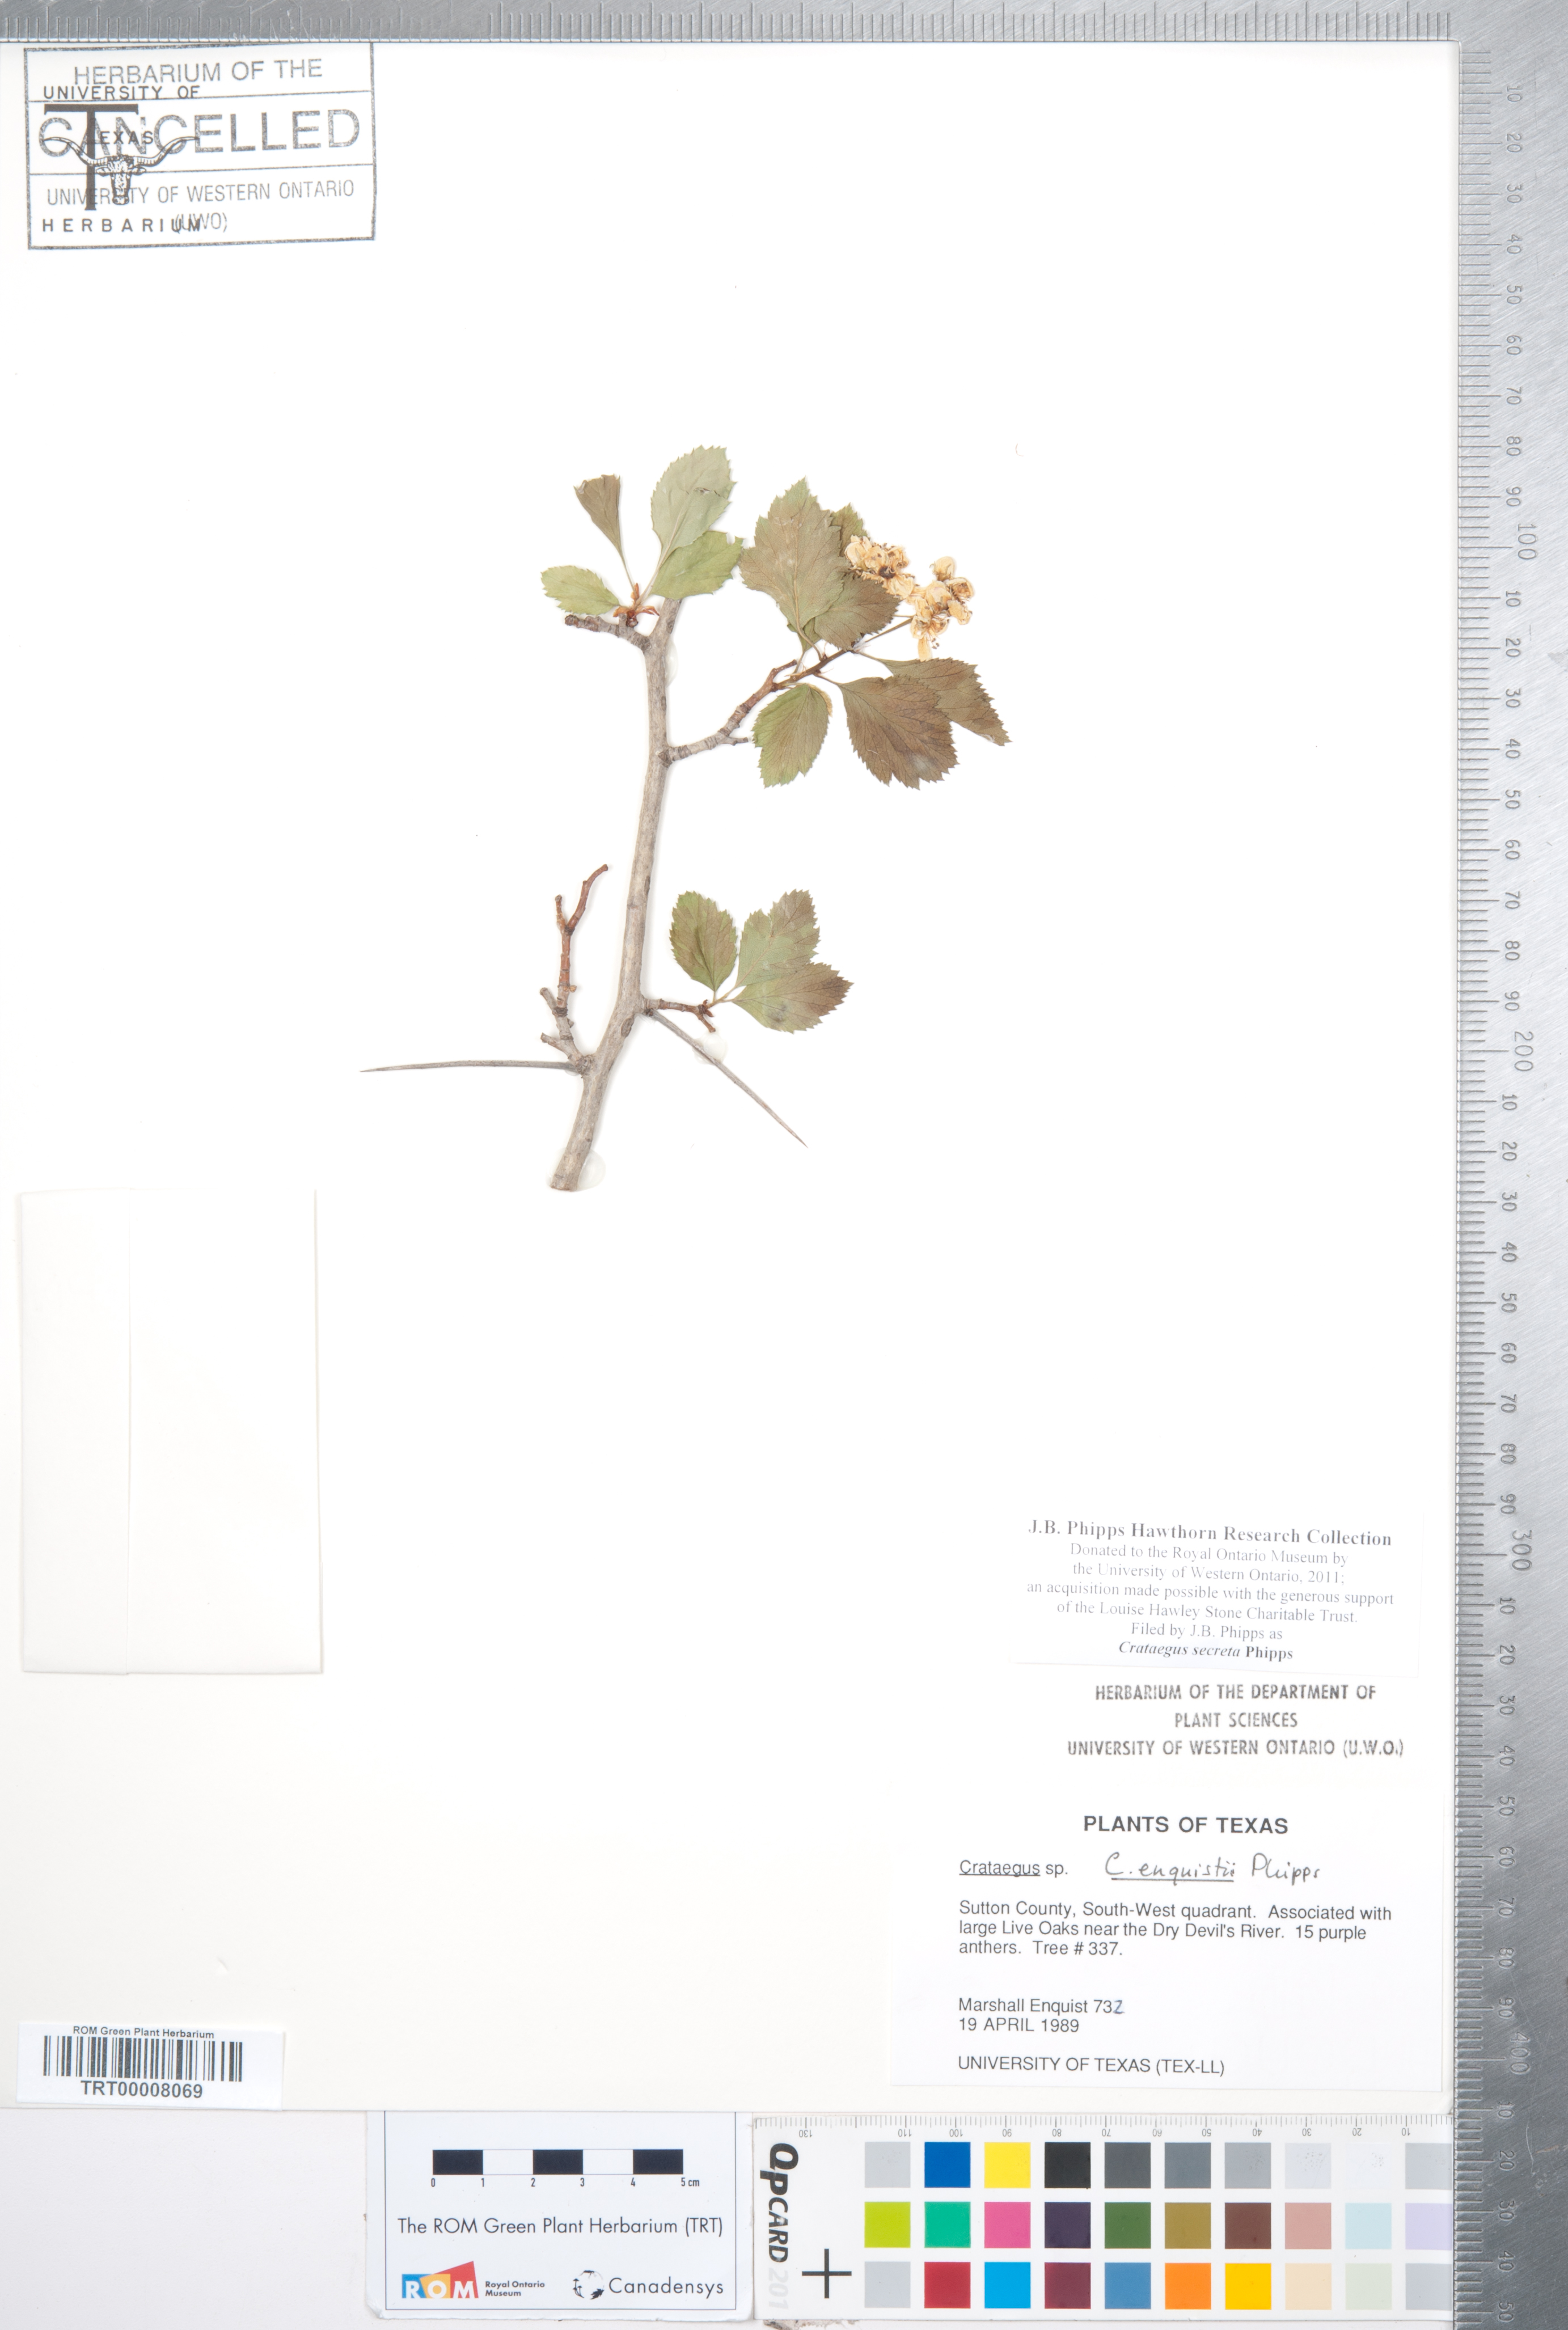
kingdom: Plantae
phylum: Tracheophyta
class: Magnoliopsida
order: Rosales
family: Rosaceae
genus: Crataegus
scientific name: Crataegus turnerorum
